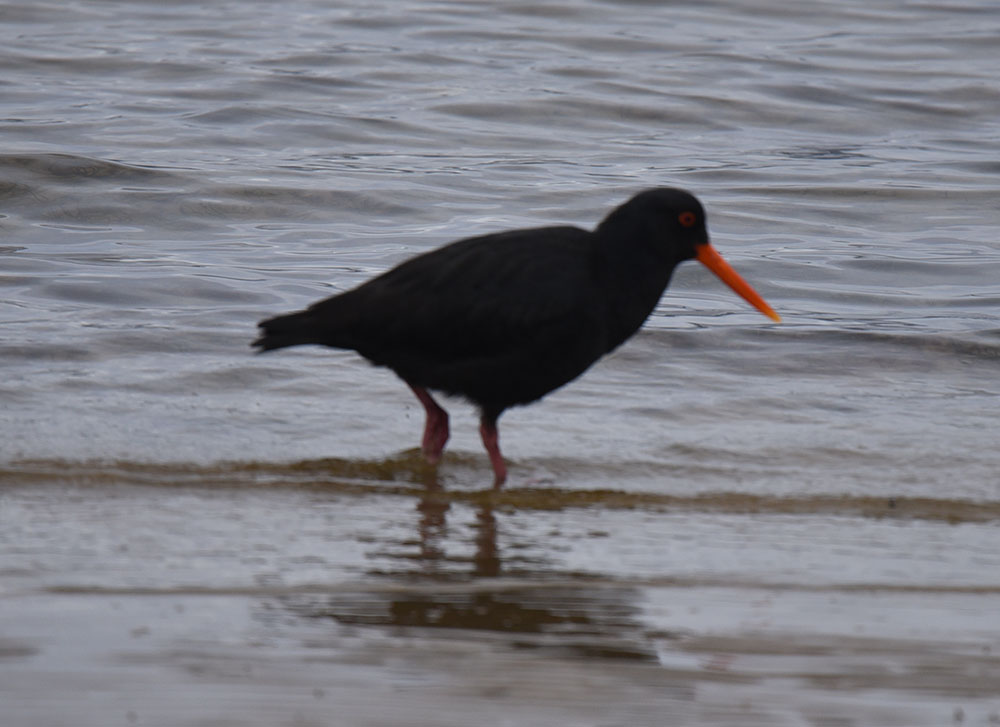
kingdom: Animalia
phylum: Chordata
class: Aves
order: Charadriiformes
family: Haematopodidae
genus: Haematopus
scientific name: Haematopus
